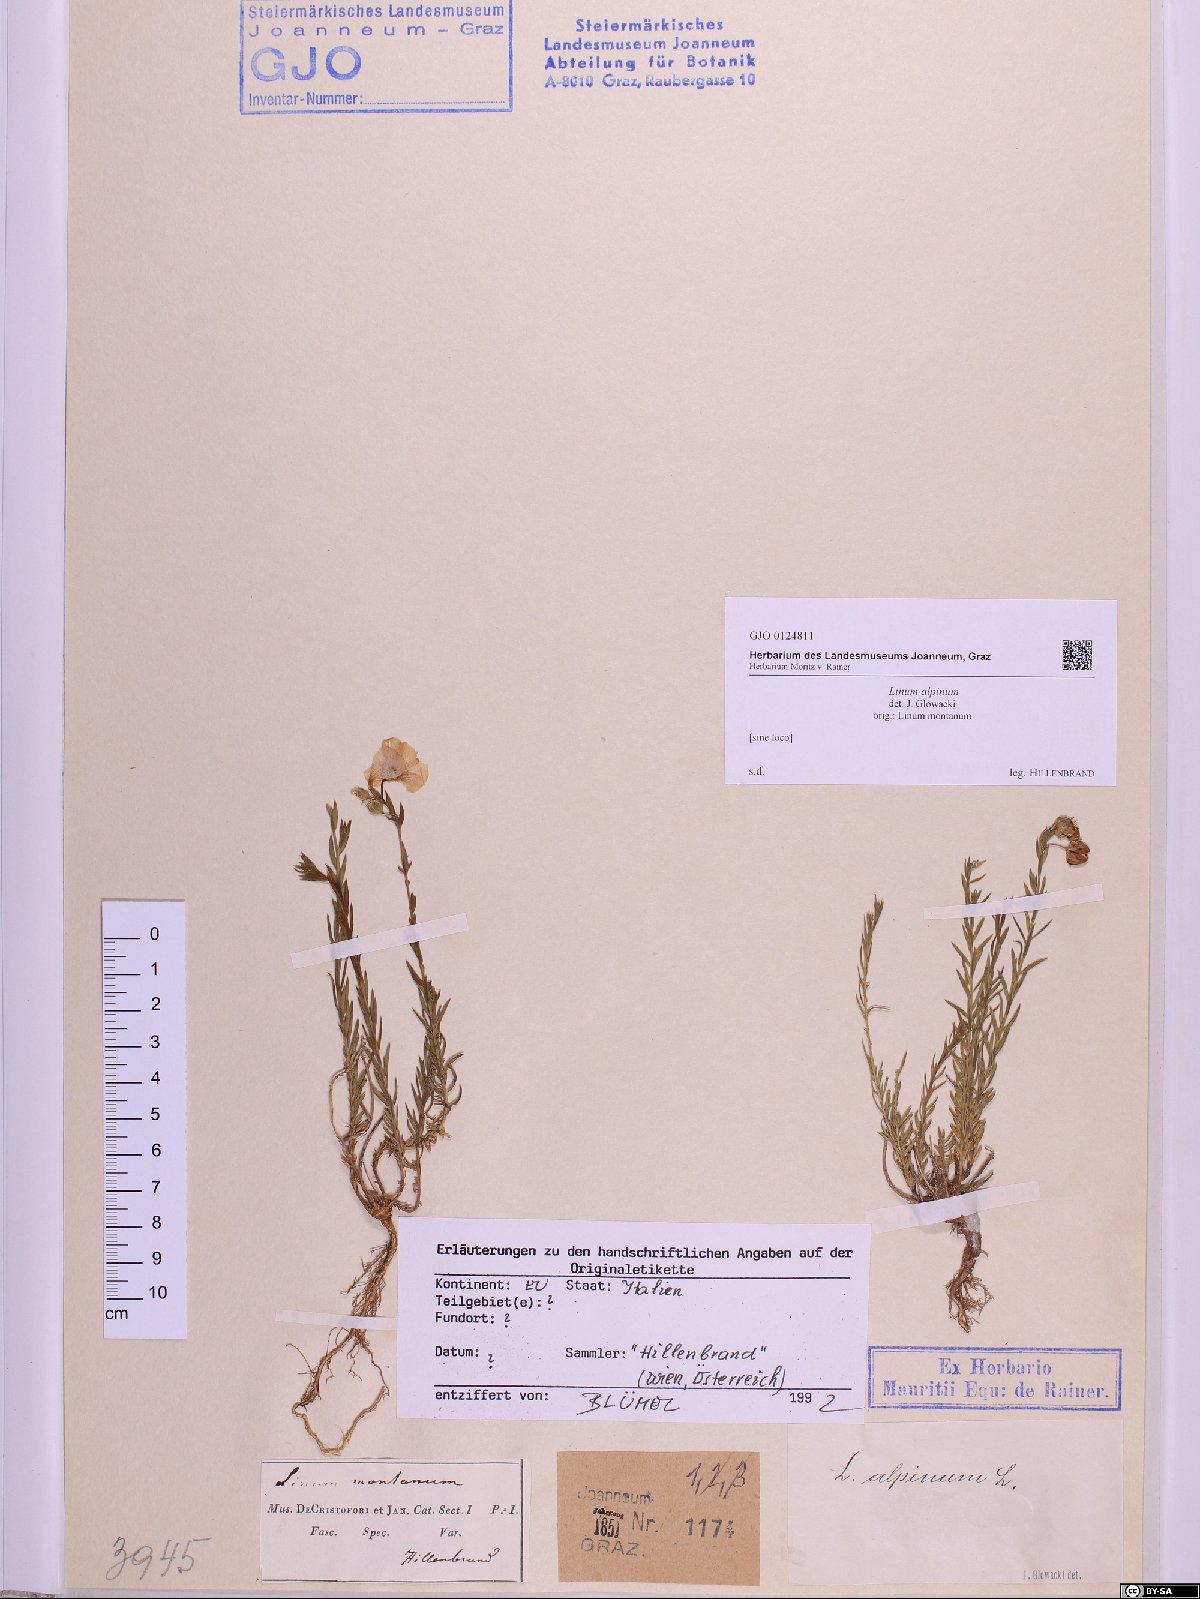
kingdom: Plantae
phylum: Tracheophyta
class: Magnoliopsida
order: Malpighiales
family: Linaceae
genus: Linum
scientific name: Linum alpinum
